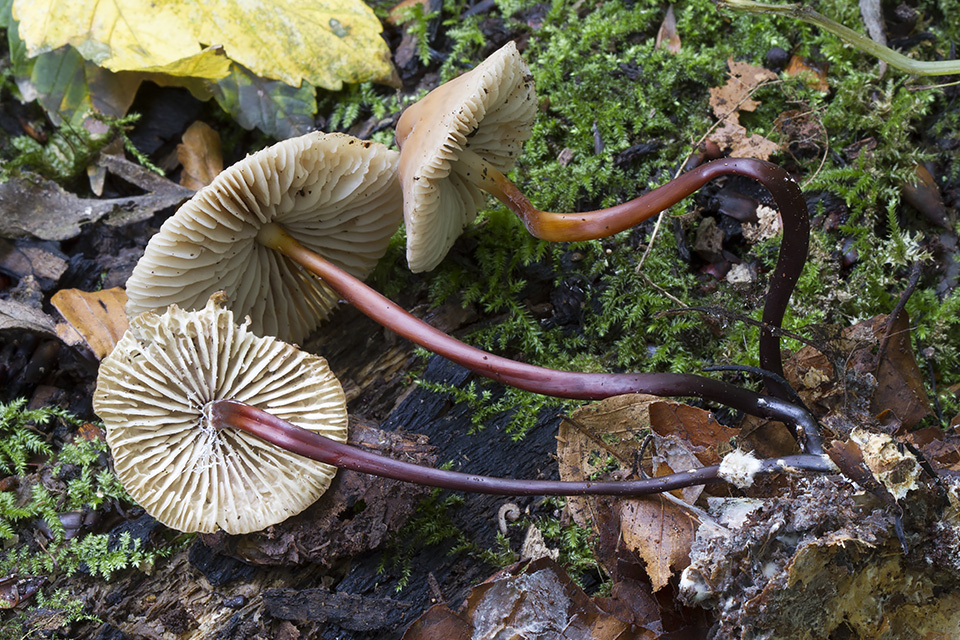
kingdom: Fungi
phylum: Basidiomycota
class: Agaricomycetes
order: Agaricales
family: Marasmiaceae
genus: Marasmius
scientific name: Marasmius cohaerens
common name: hornstokket bruskhat
